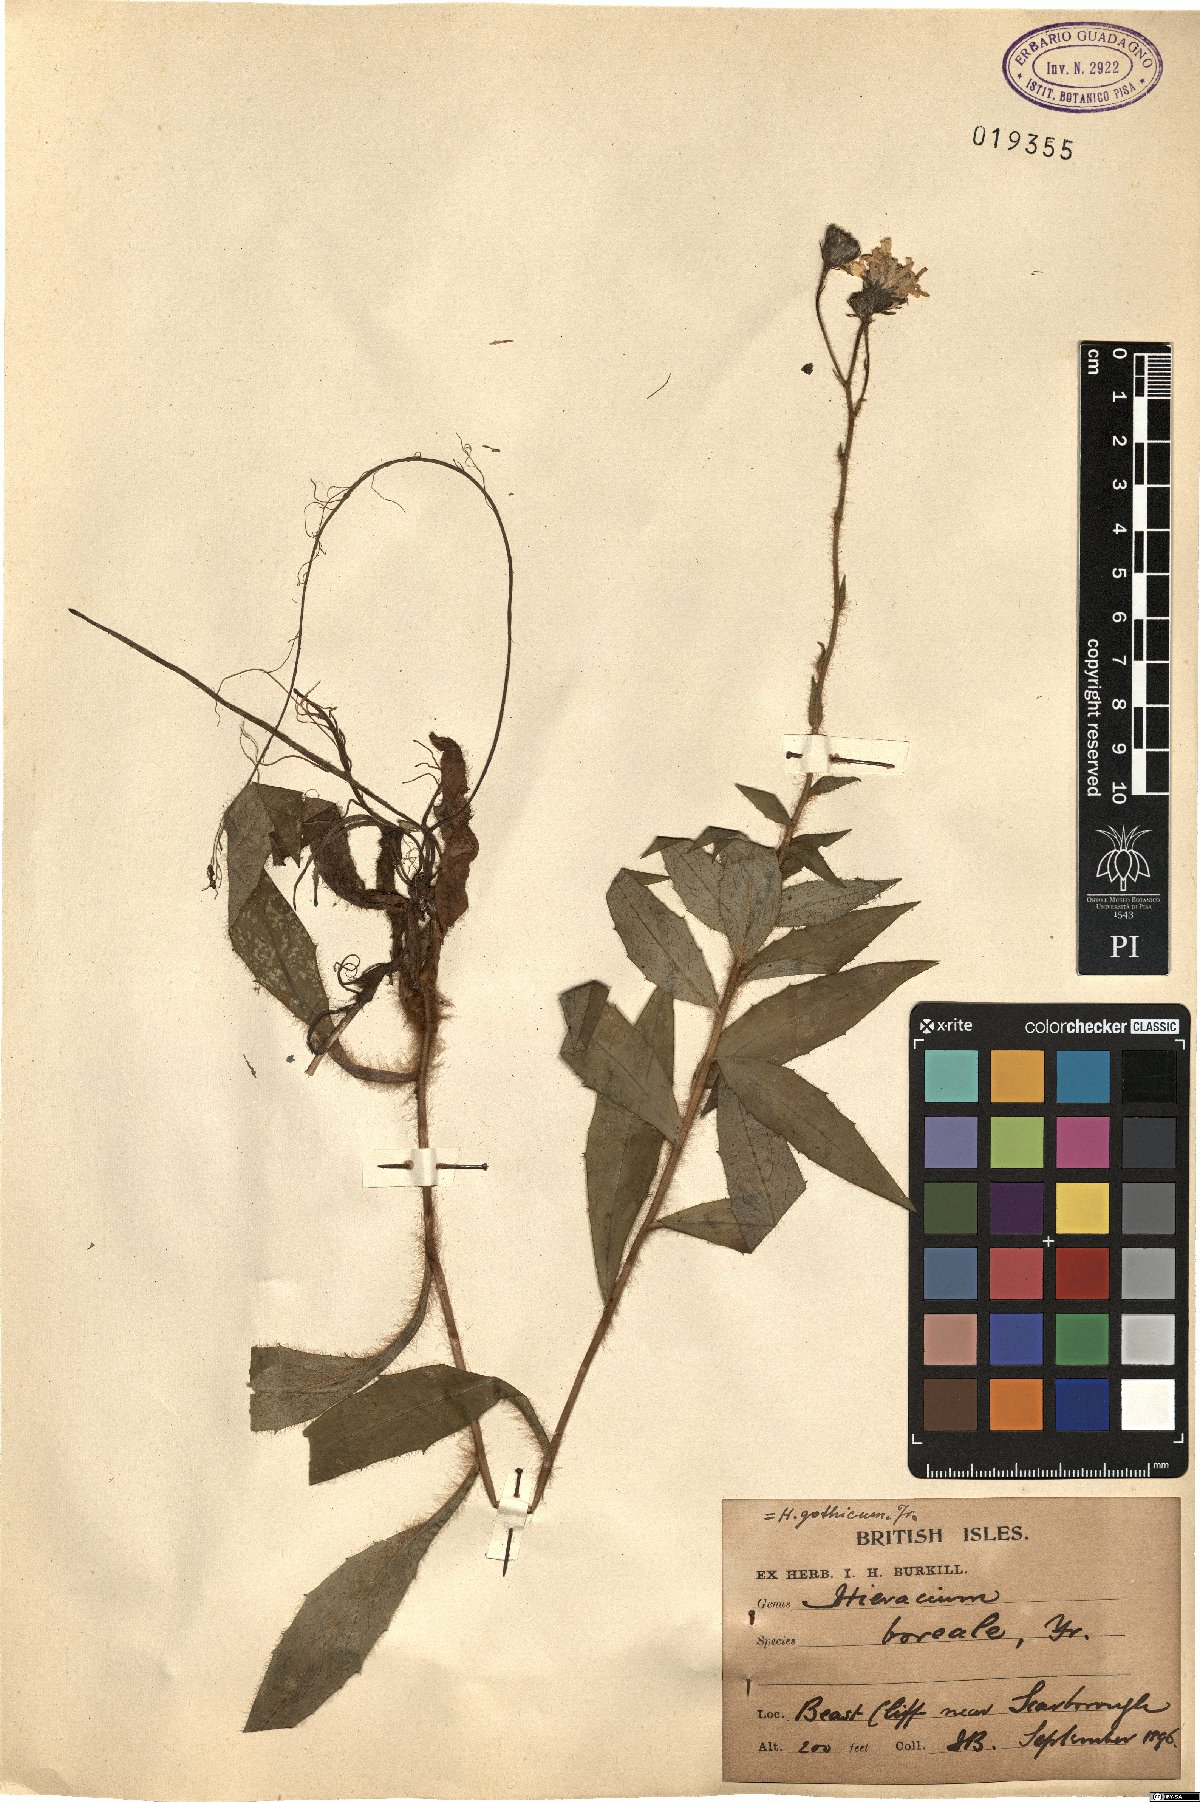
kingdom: Plantae
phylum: Tracheophyta
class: Magnoliopsida
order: Asterales
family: Asteraceae
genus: Hieracium
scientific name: Hieracium laevigatum
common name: Smooth hawkweed
